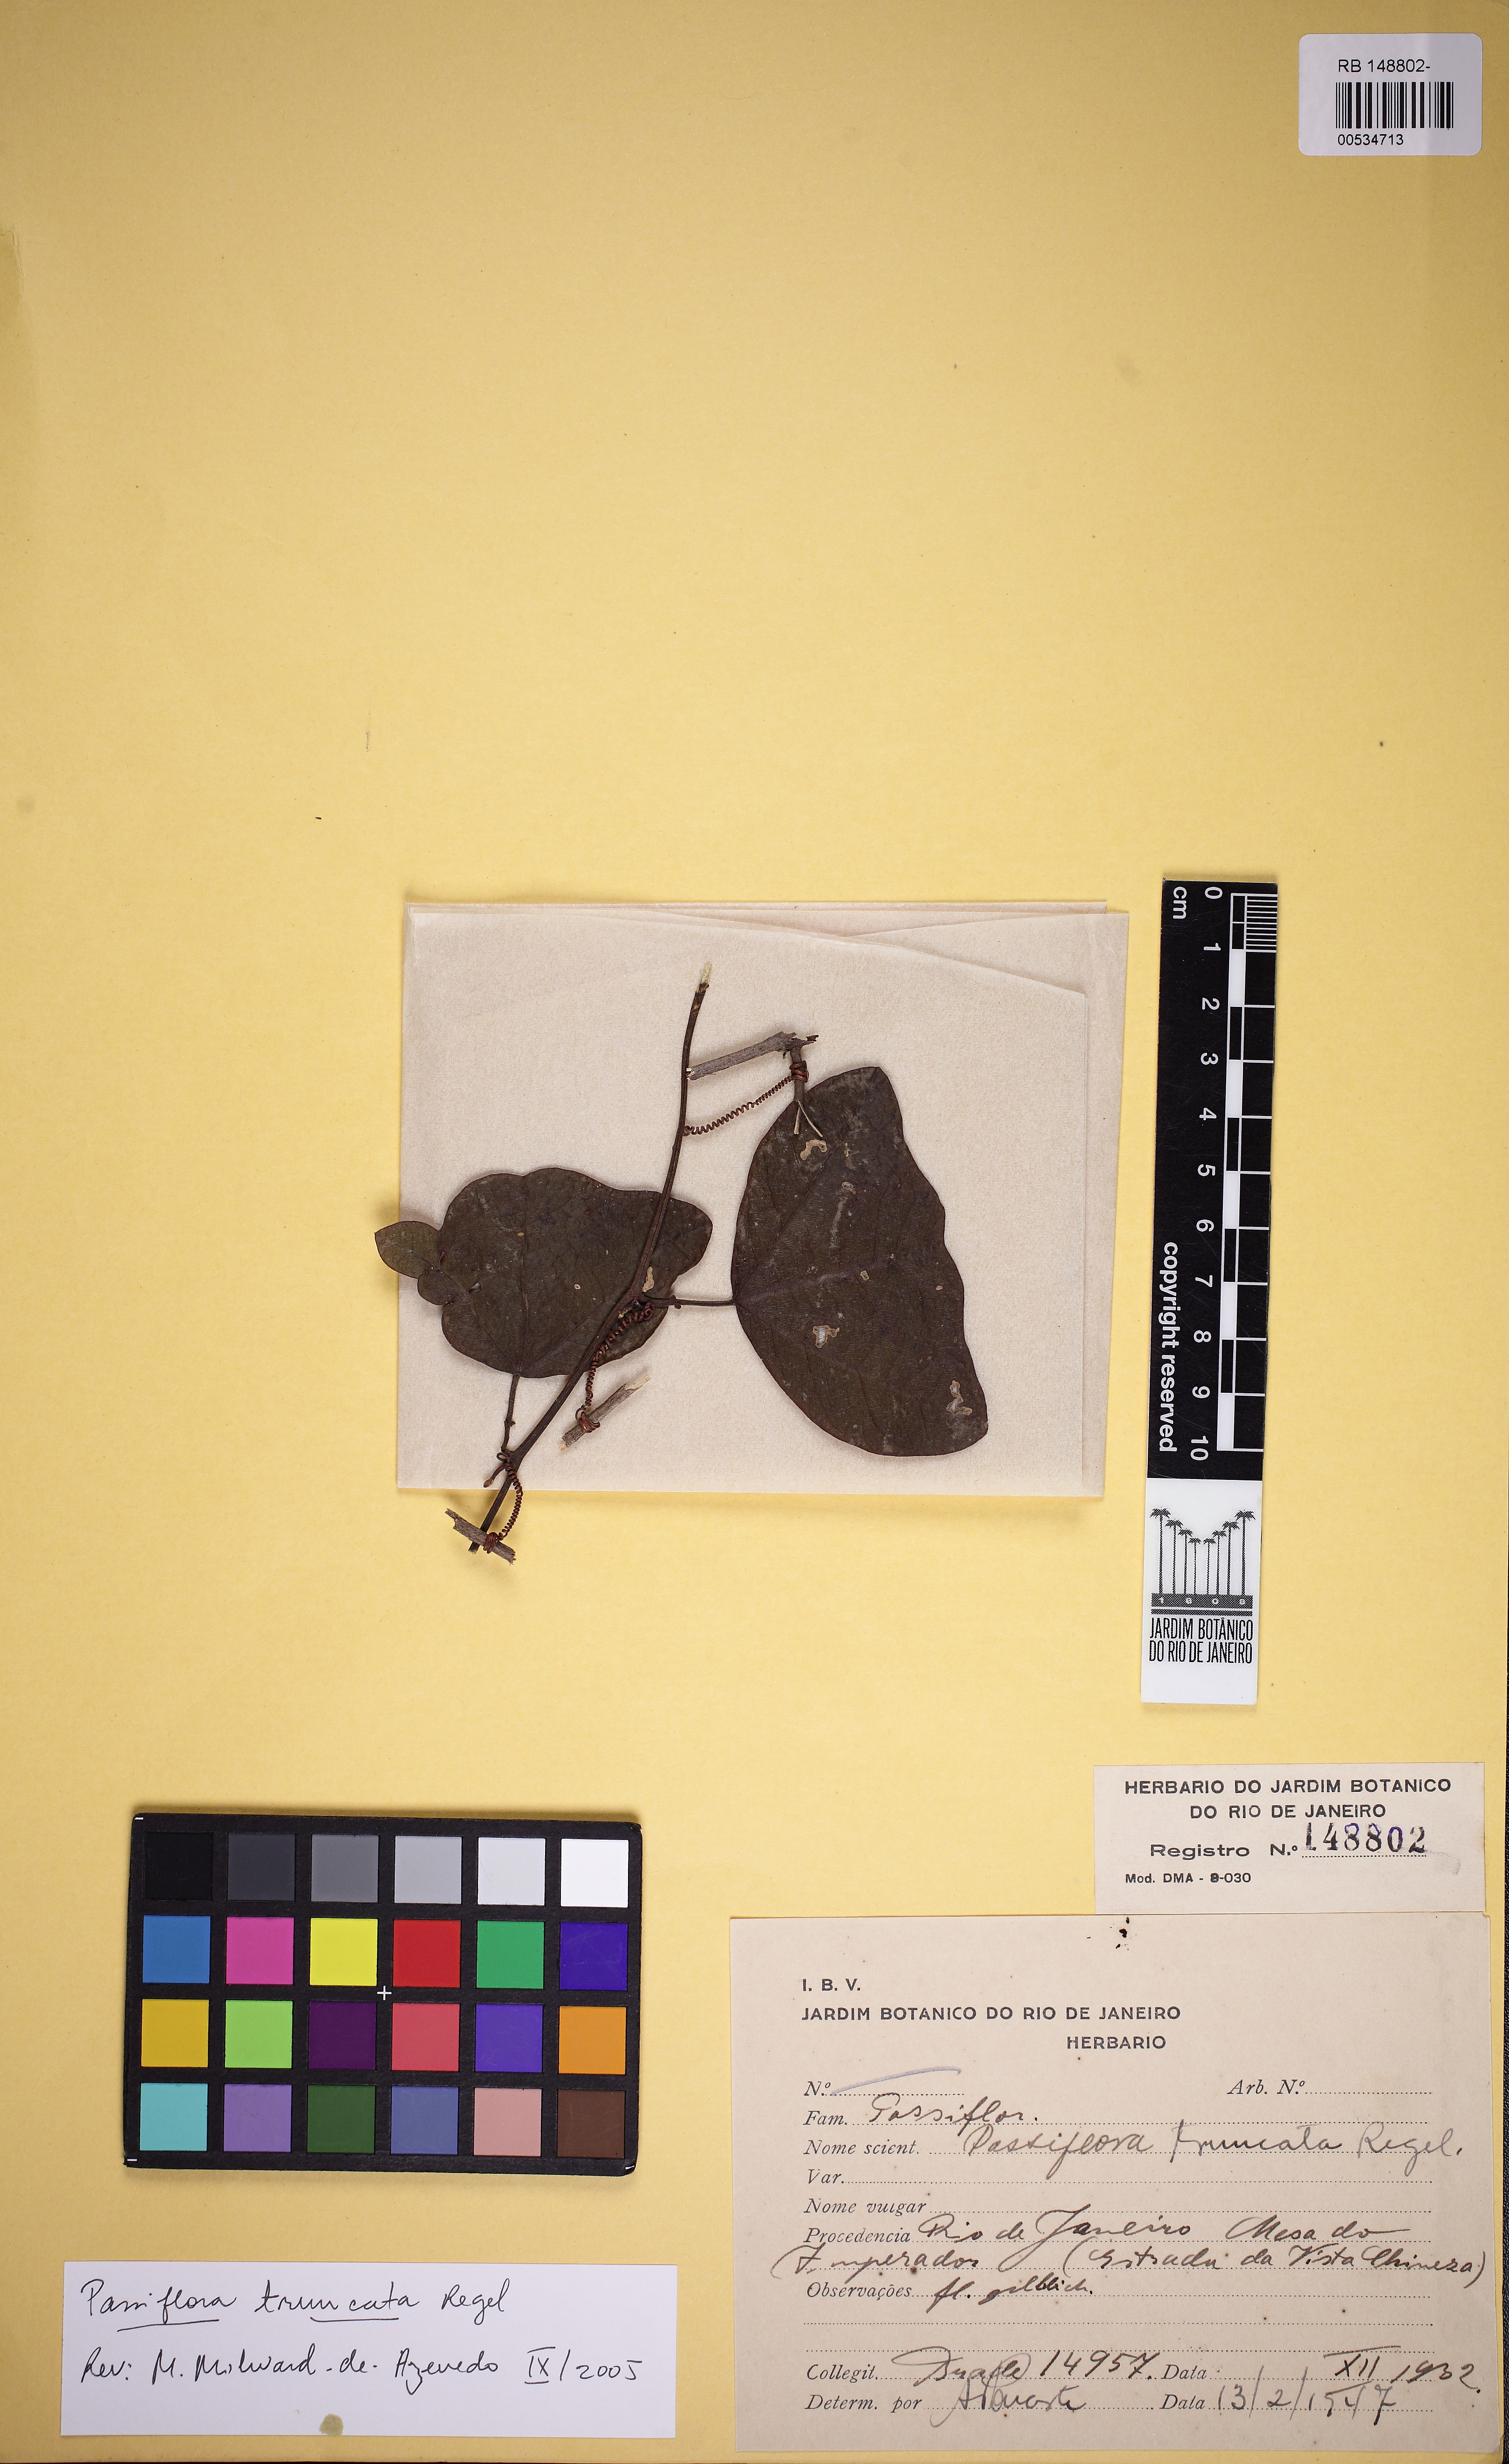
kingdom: Plantae
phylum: Tracheophyta
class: Magnoliopsida
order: Malpighiales
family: Passifloraceae
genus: Passiflora
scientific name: Passiflora truncata
